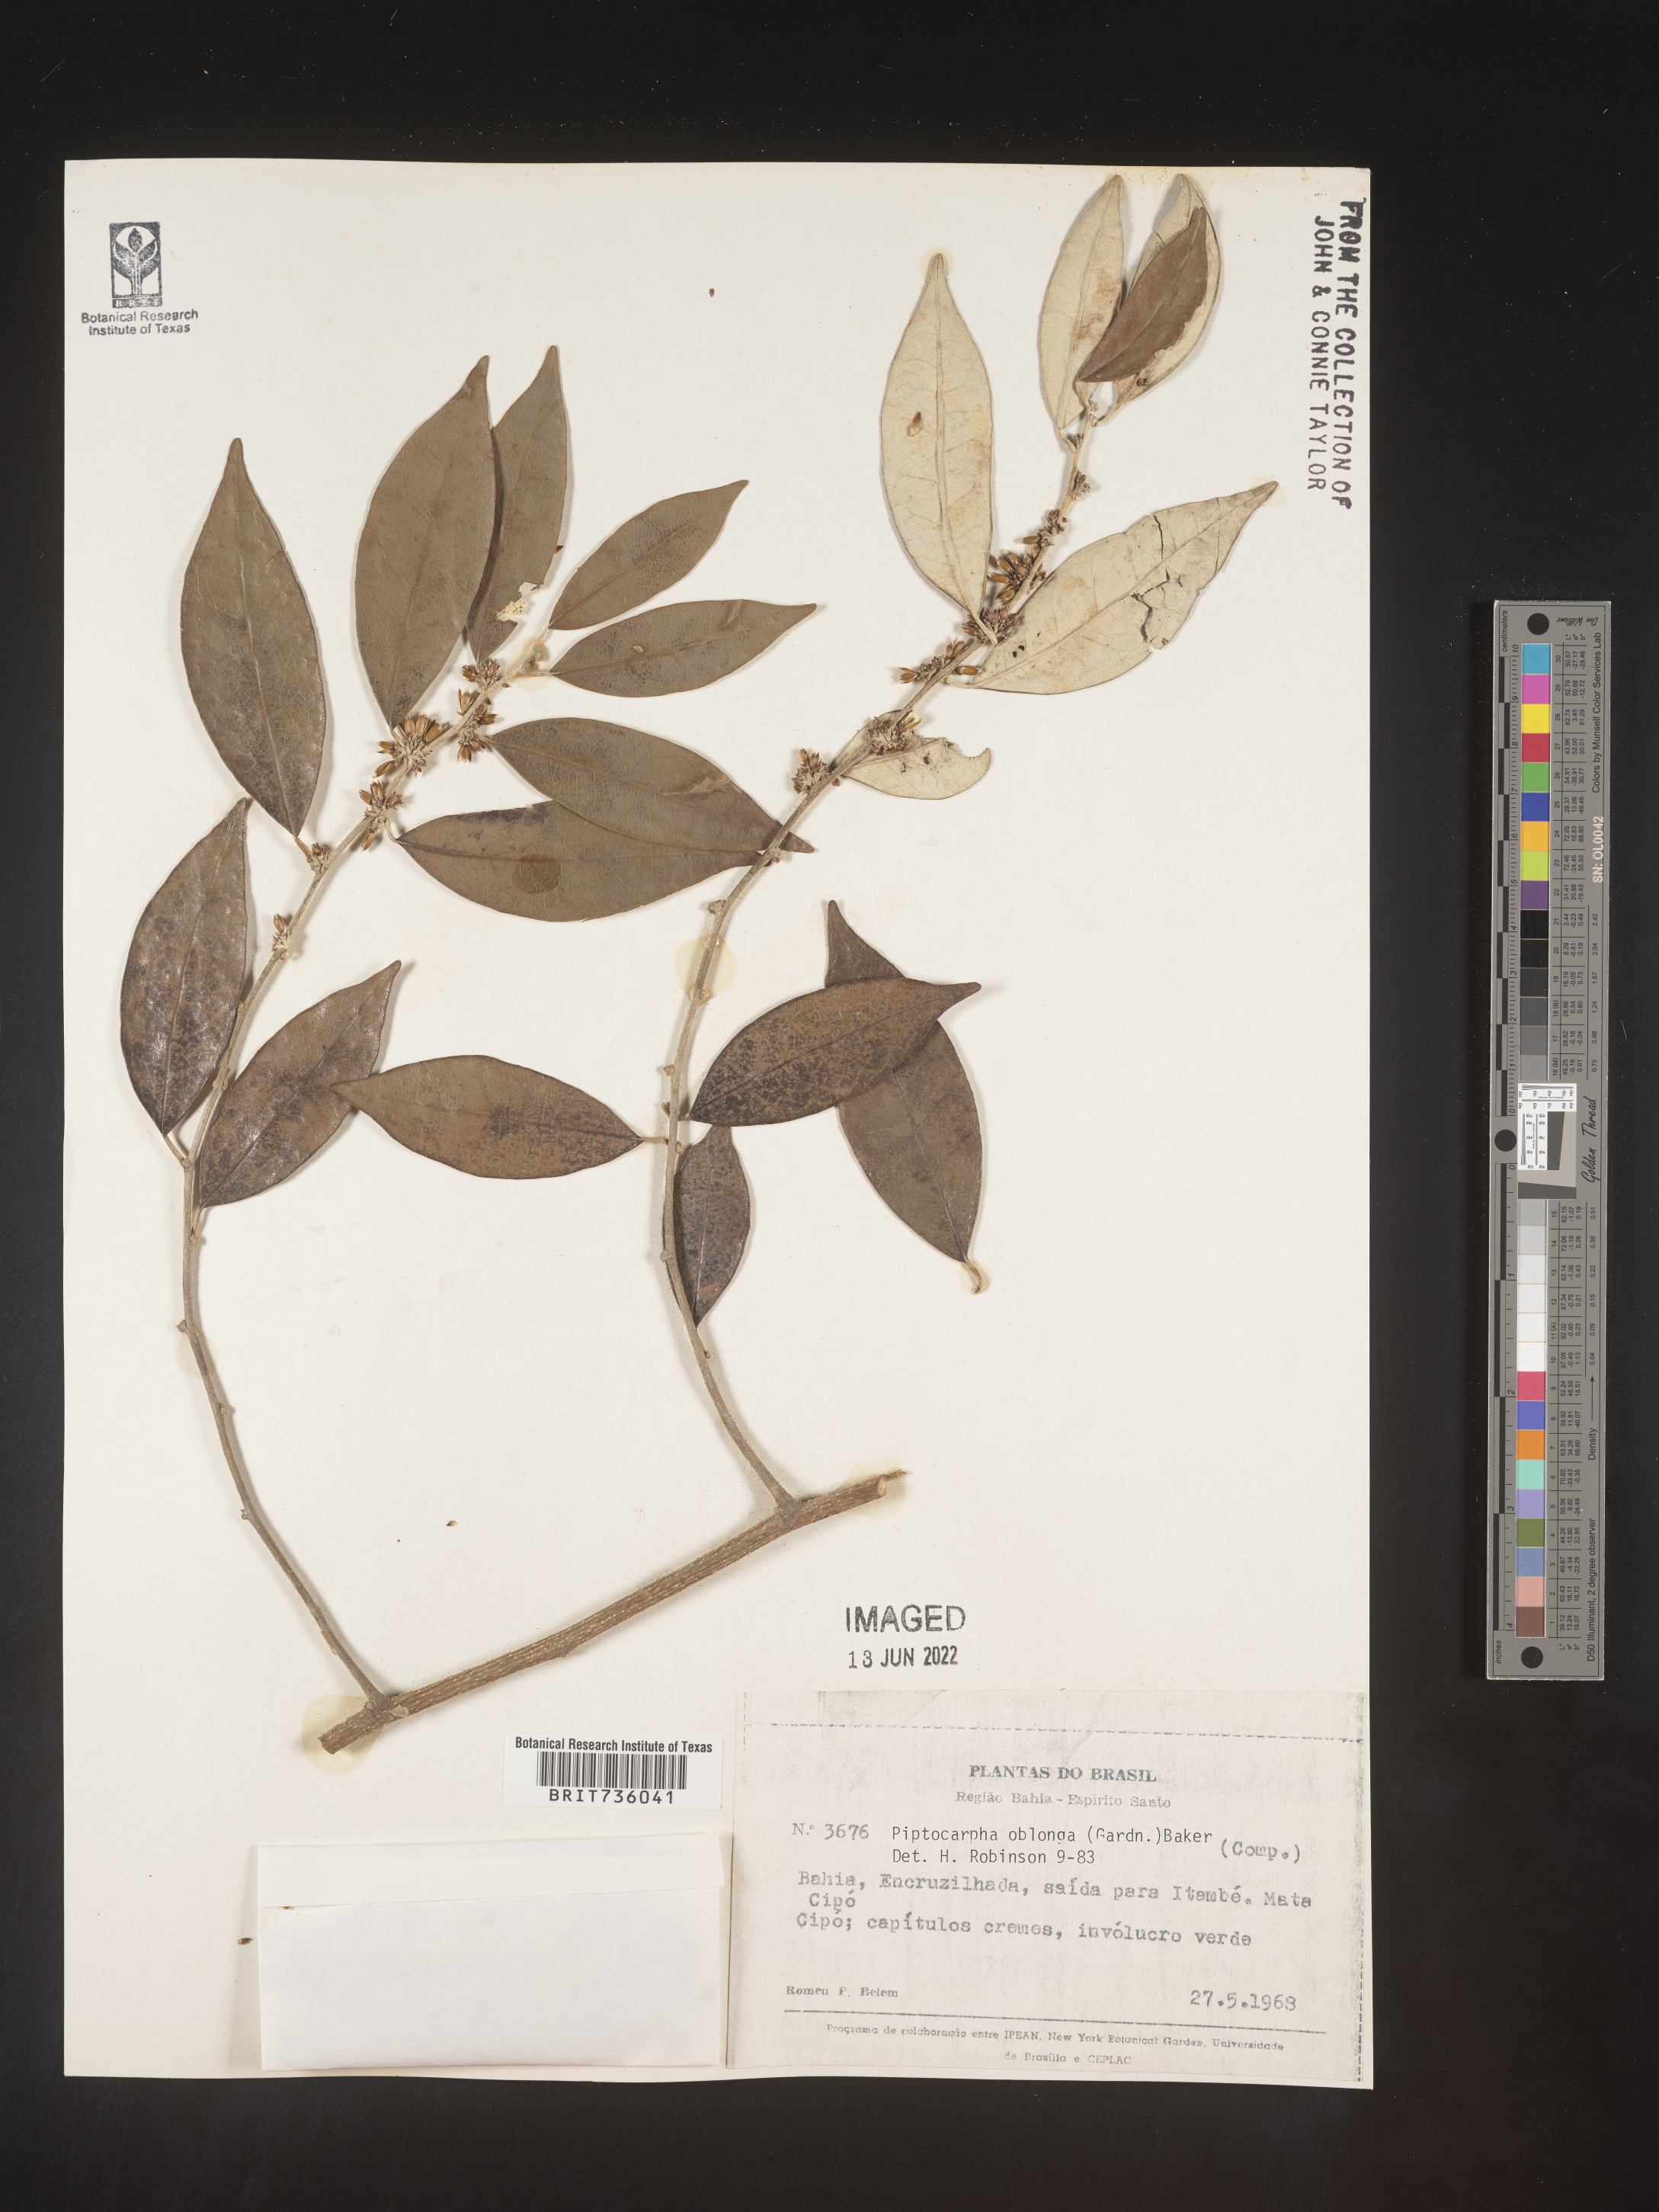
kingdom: Plantae
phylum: Tracheophyta
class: Magnoliopsida
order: Asterales
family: Asteraceae
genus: Piptocarpha
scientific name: Piptocarpha
